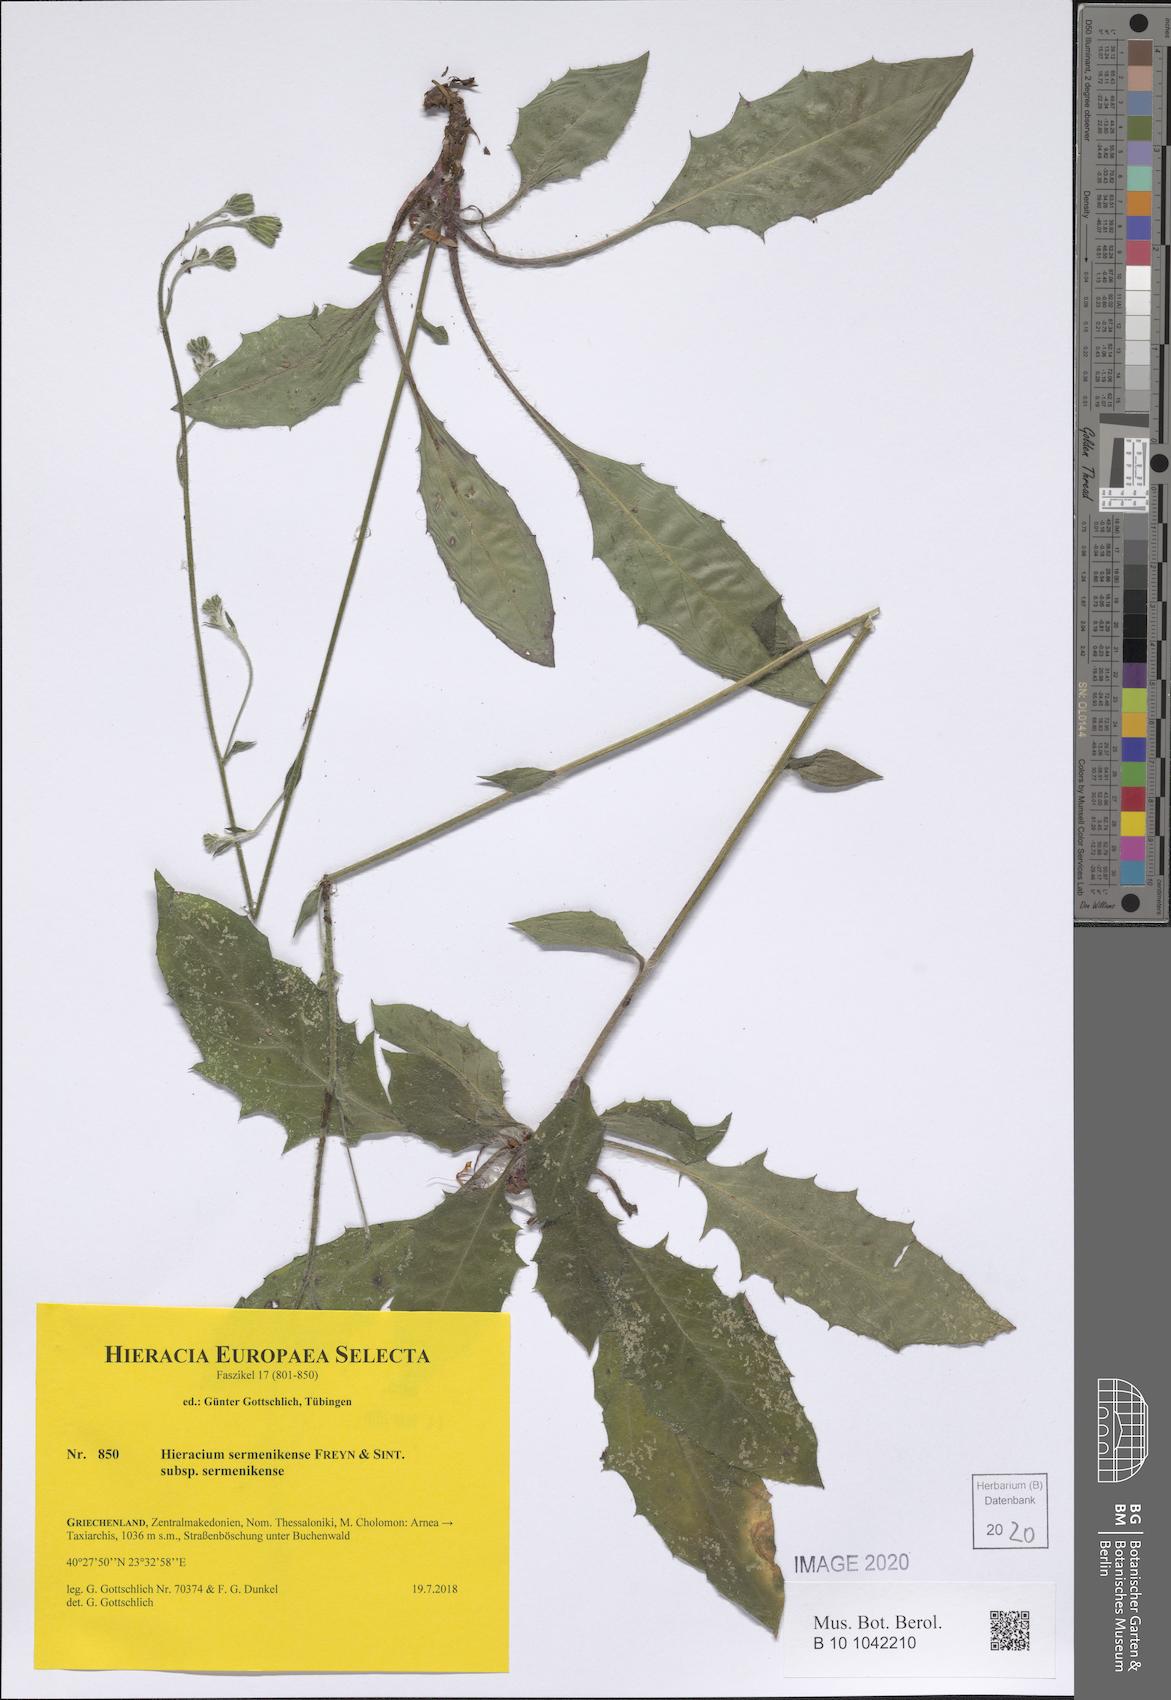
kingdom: Plantae
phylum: Tracheophyta
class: Magnoliopsida
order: Asterales
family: Asteraceae
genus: Hieracium
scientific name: Hieracium sermenikense
